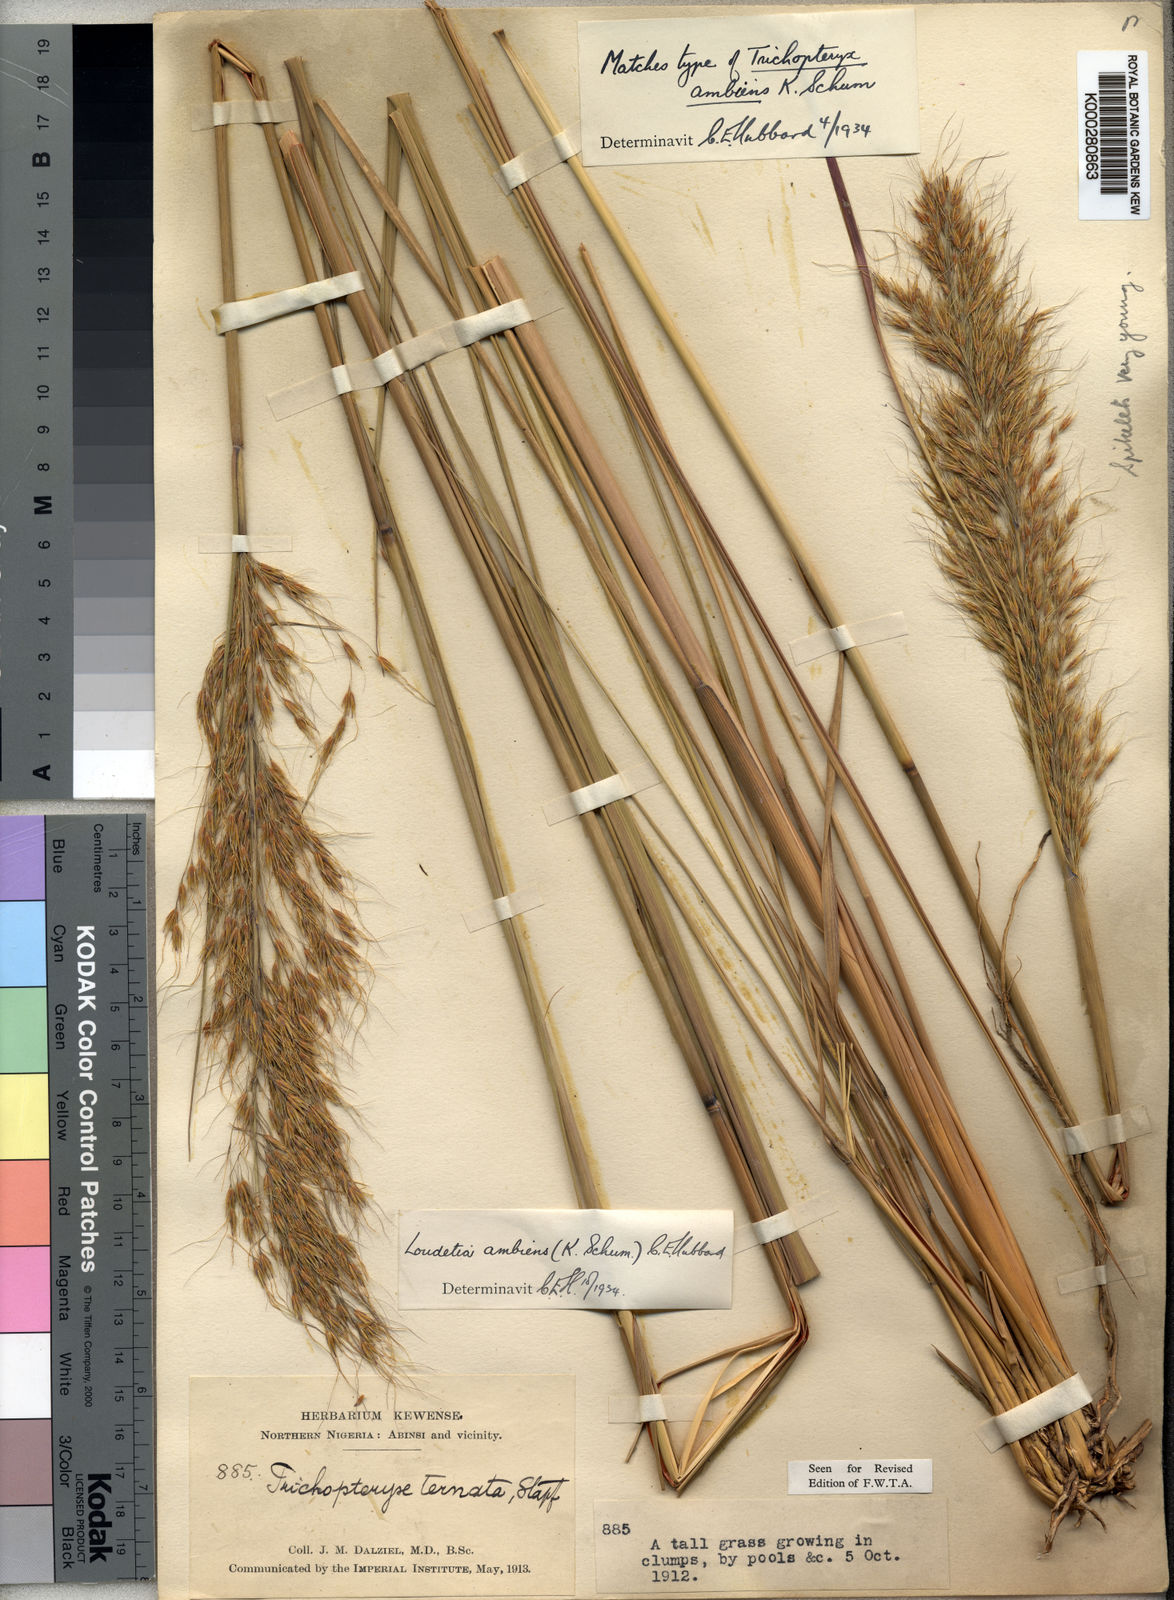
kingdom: Plantae
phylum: Tracheophyta
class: Liliopsida
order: Poales
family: Poaceae
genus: Loudetiopsis
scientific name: Loudetiopsis ambiens
